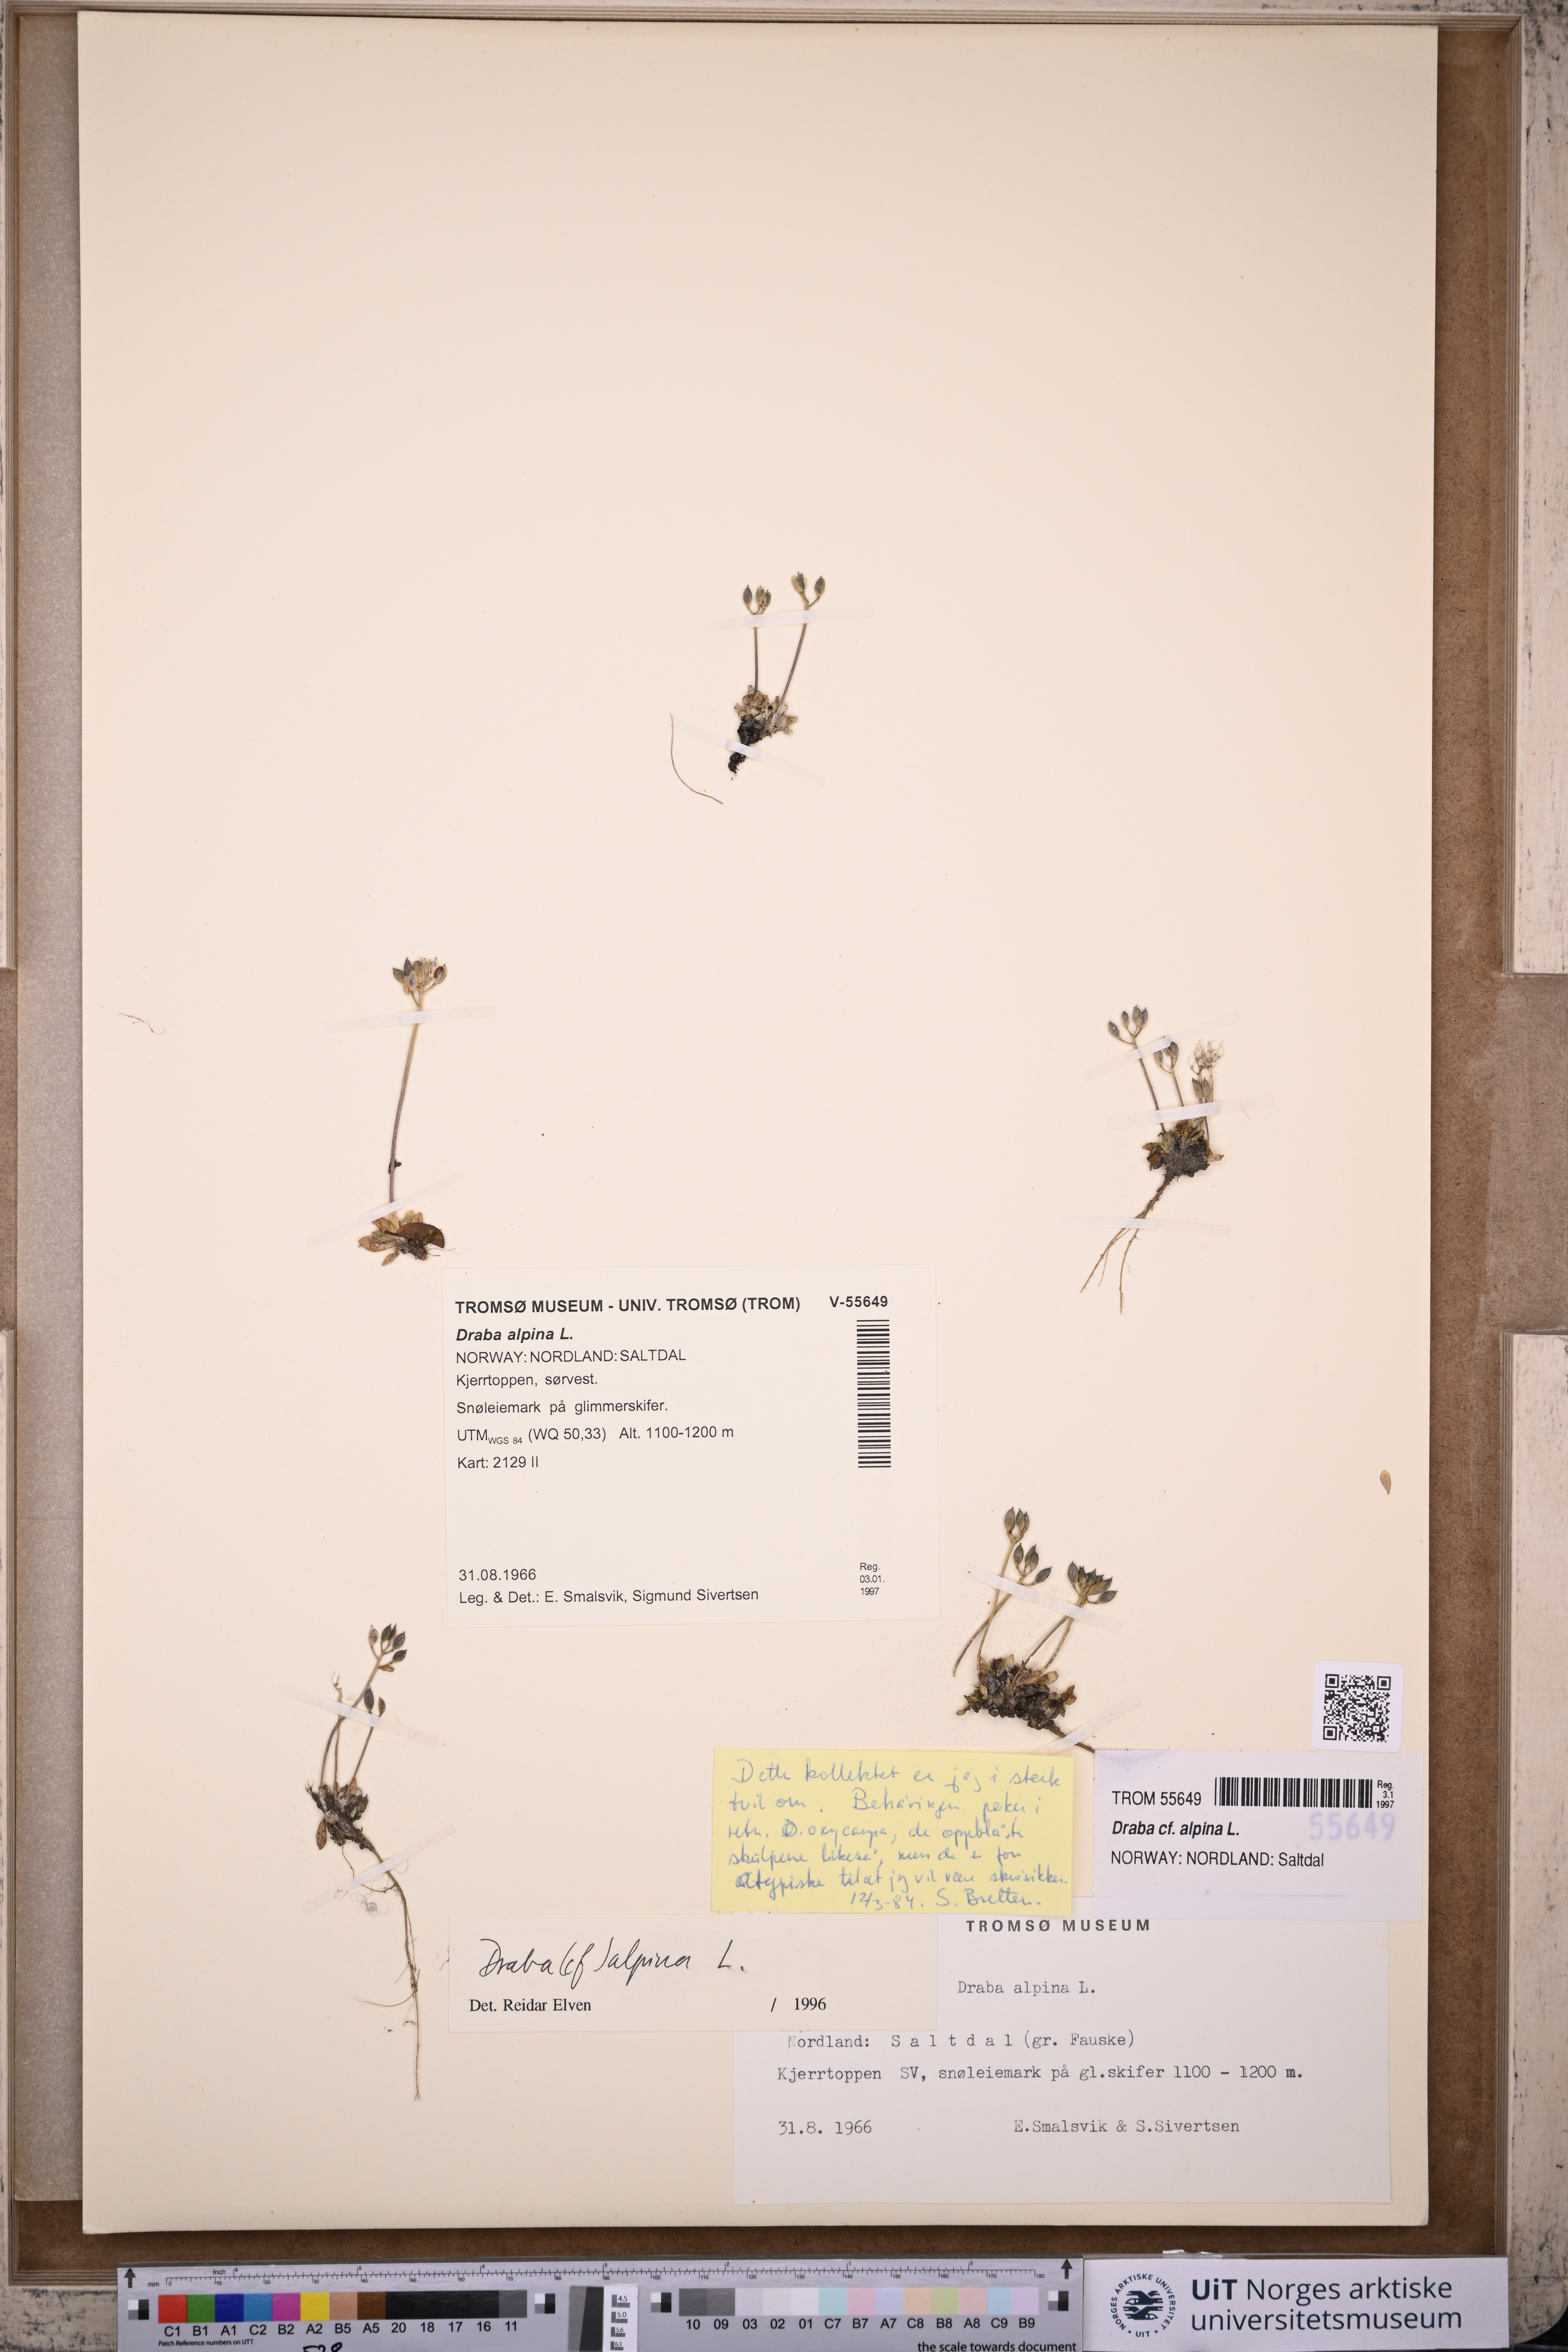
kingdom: Plantae
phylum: Tracheophyta
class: Magnoliopsida
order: Brassicales
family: Brassicaceae
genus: Draba
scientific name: Draba alpina
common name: Alpine draba
